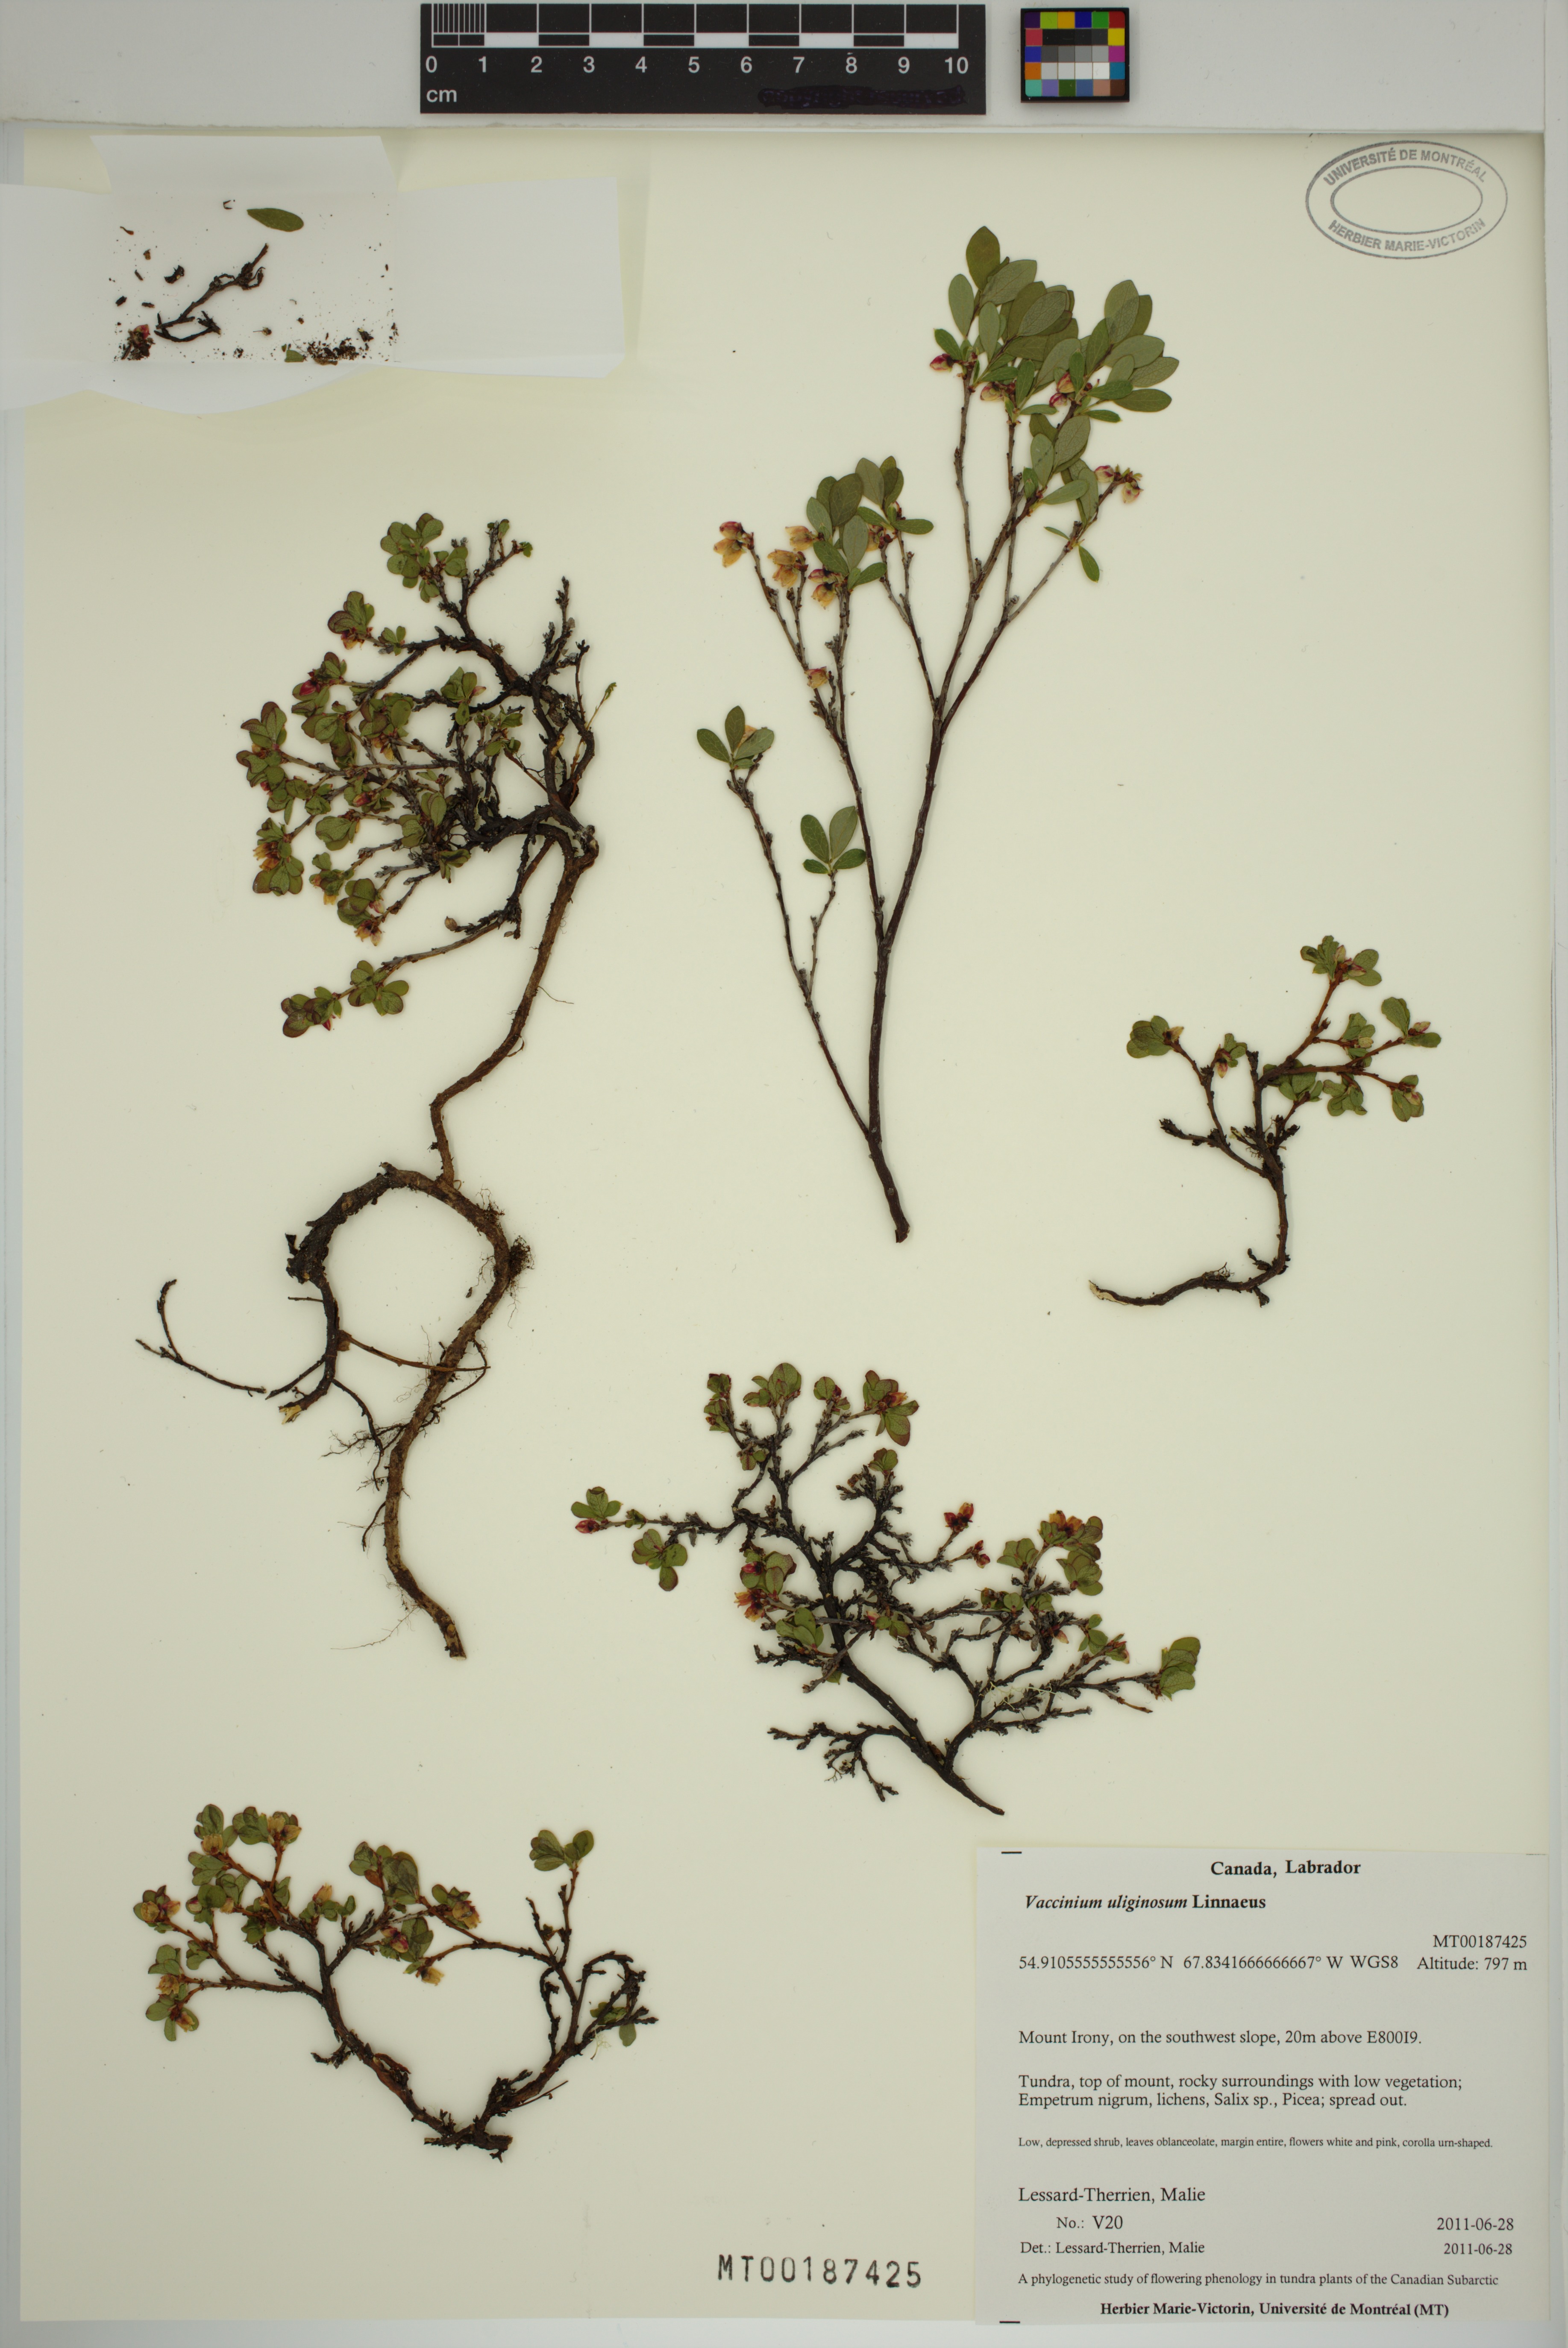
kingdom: Plantae
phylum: Tracheophyta
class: Magnoliopsida
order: Ericales
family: Ericaceae
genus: Vaccinium
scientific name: Vaccinium uliginosum
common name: Bog bilberry
